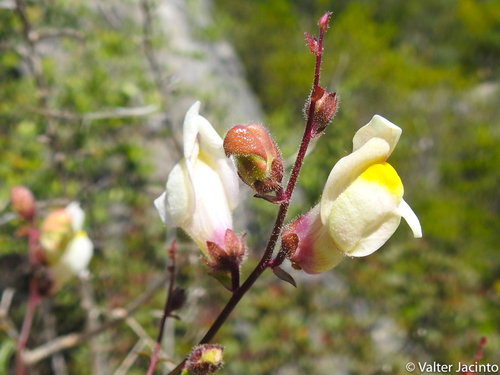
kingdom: Plantae
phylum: Tracheophyta
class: Magnoliopsida
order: Lamiales
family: Plantaginaceae
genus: Antirrhinum
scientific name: Antirrhinum onubense
